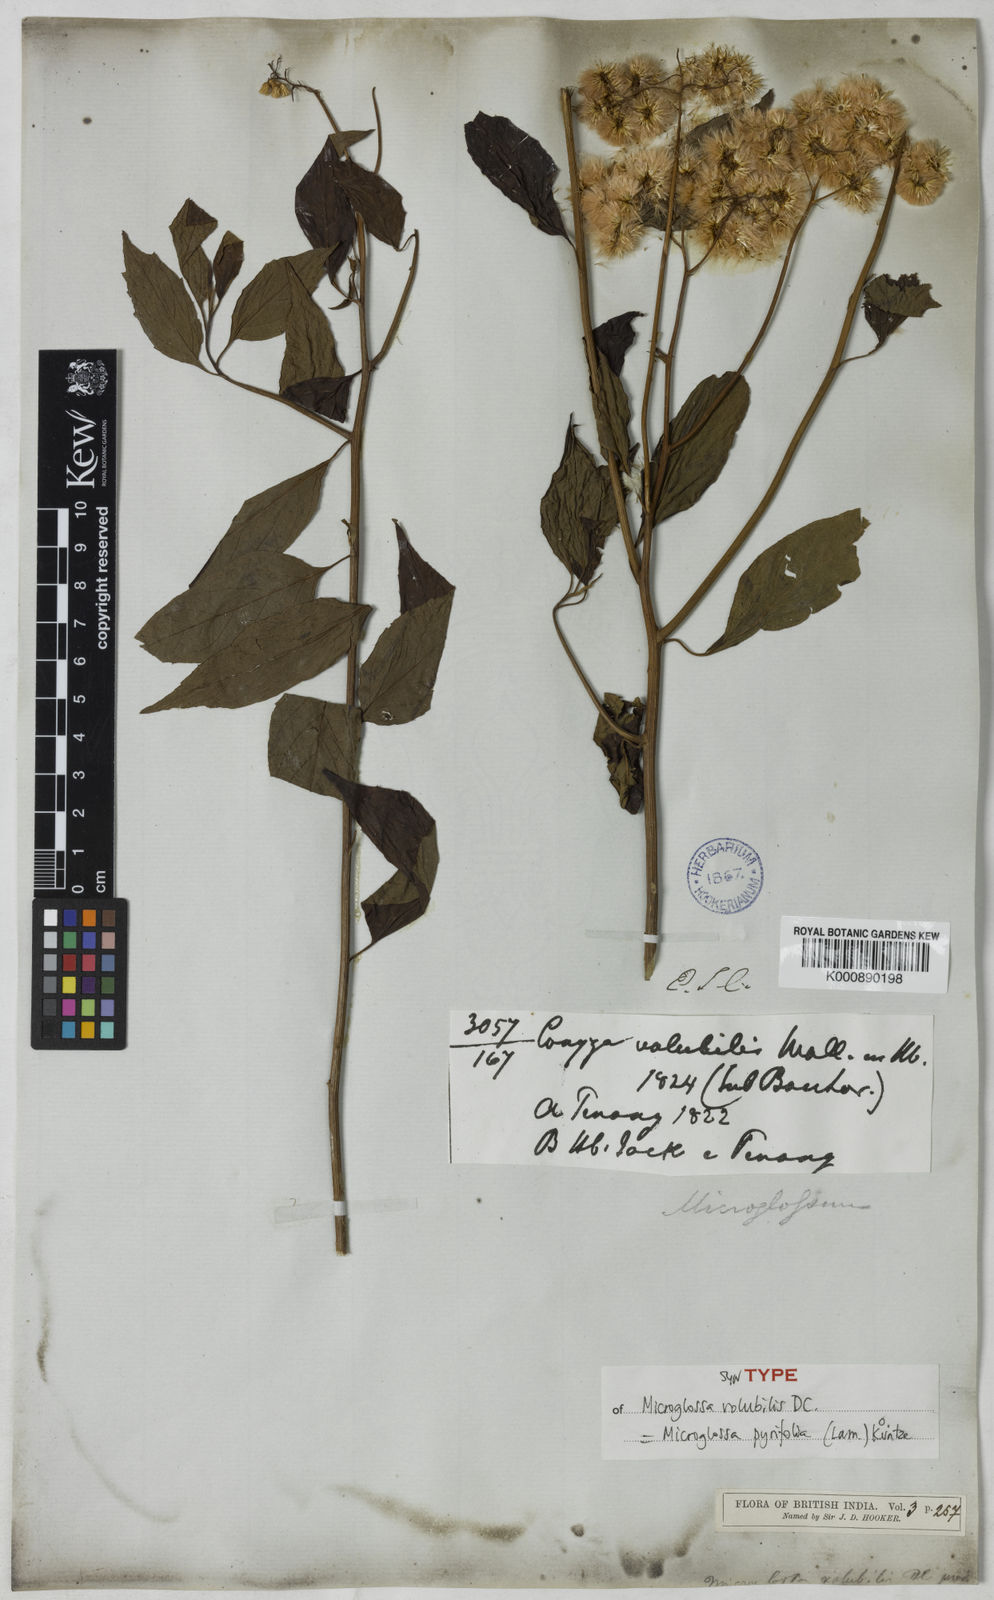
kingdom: Plantae
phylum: Tracheophyta
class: Magnoliopsida
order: Asterales
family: Asteraceae
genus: Microglossa
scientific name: Microglossa pyrifolia
